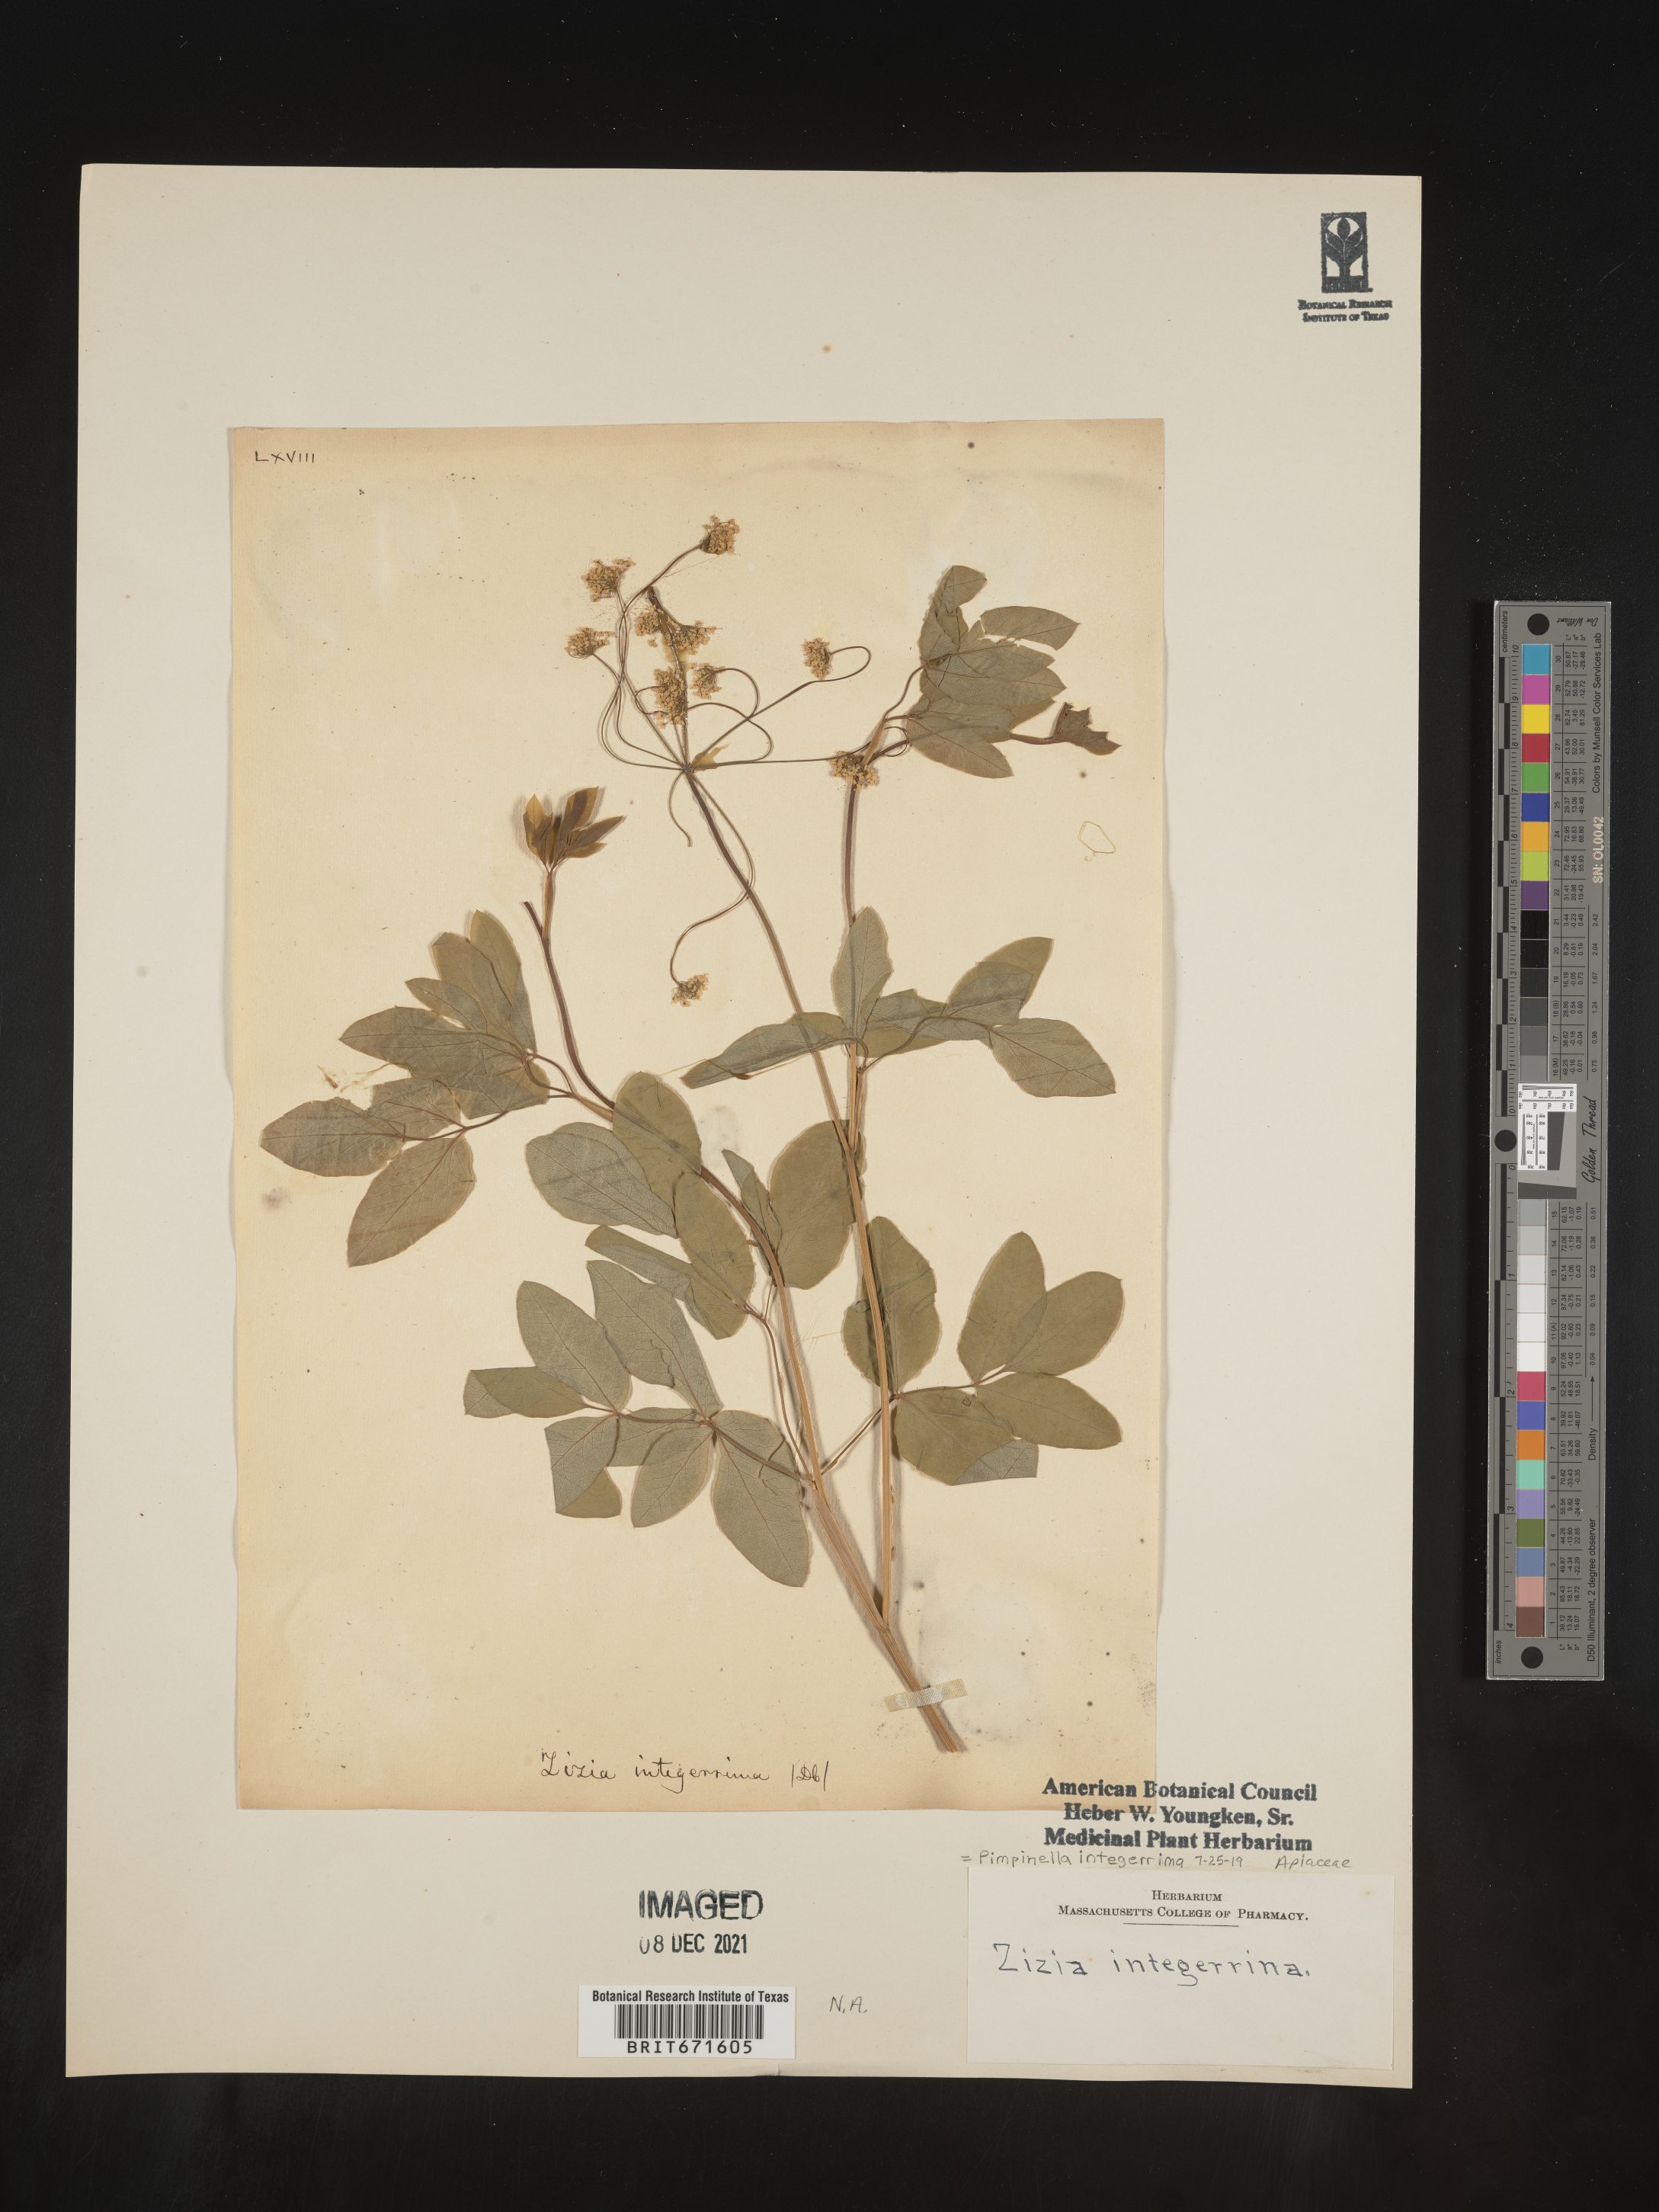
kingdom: Plantae
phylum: Tracheophyta
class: Magnoliopsida
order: Apiales
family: Apiaceae
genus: Pimpinella
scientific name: Pimpinella
